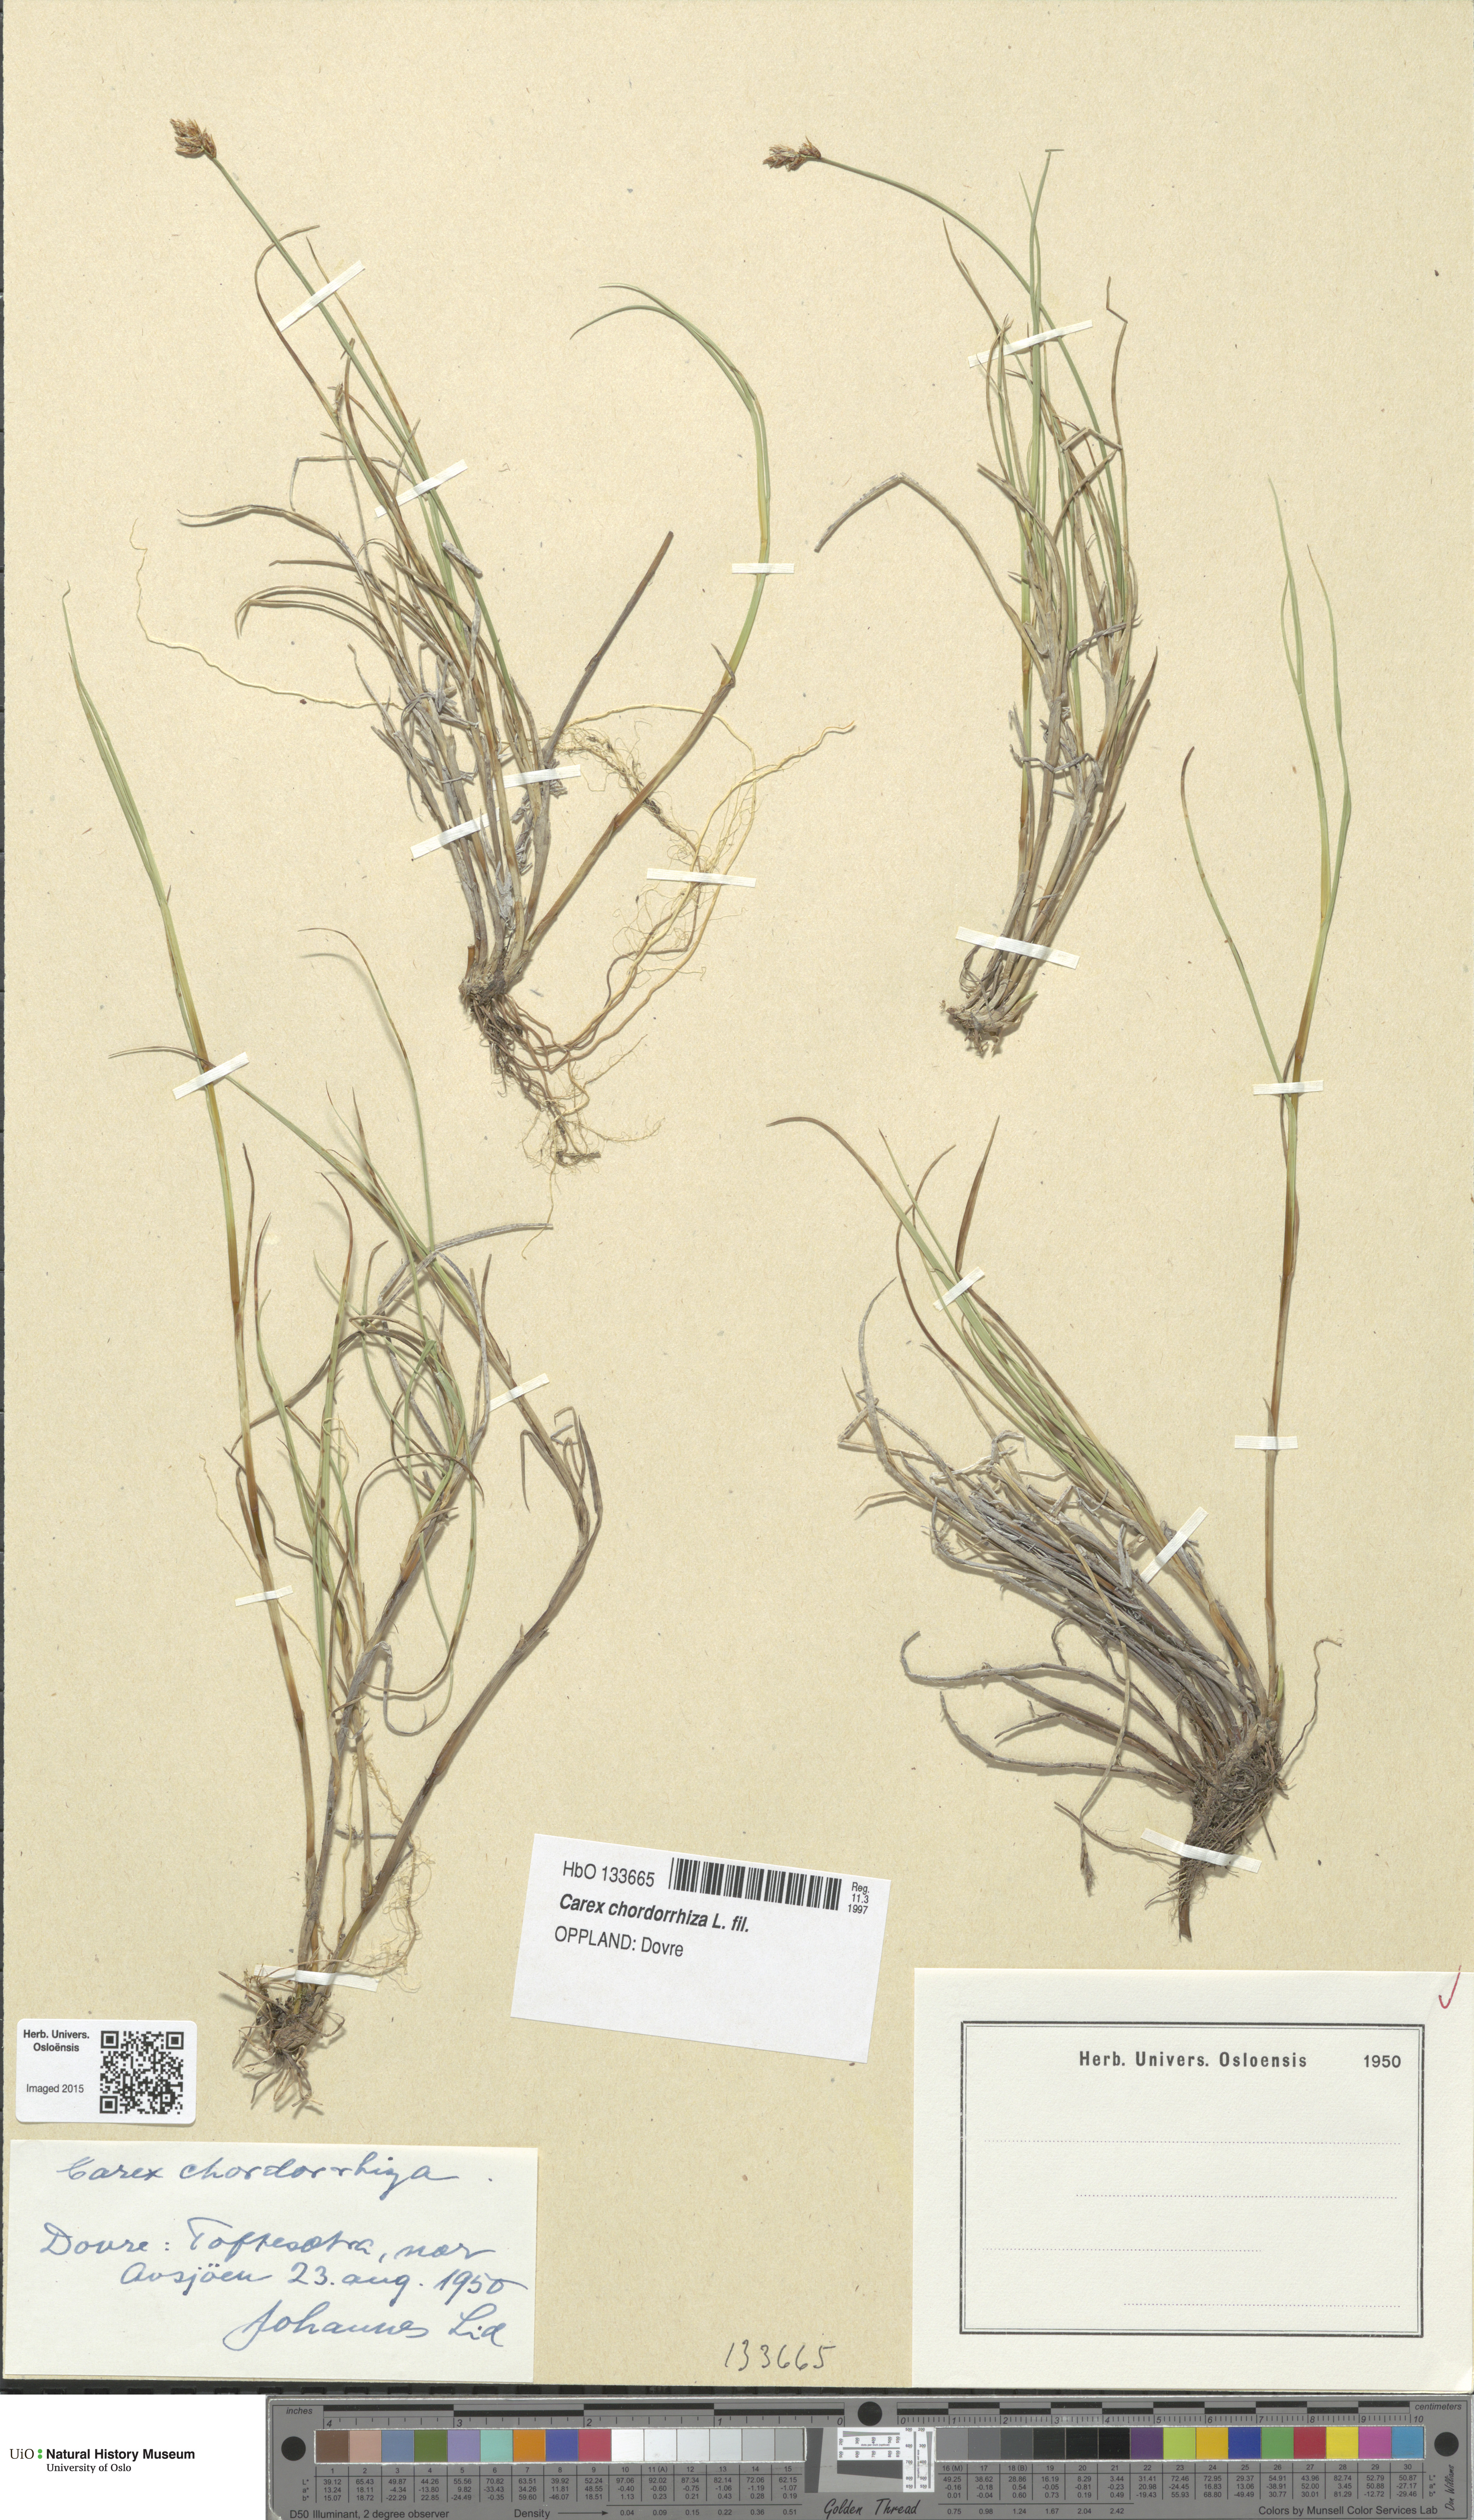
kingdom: Plantae
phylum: Tracheophyta
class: Liliopsida
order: Poales
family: Cyperaceae
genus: Carex
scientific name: Carex chordorrhiza
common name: String sedge
